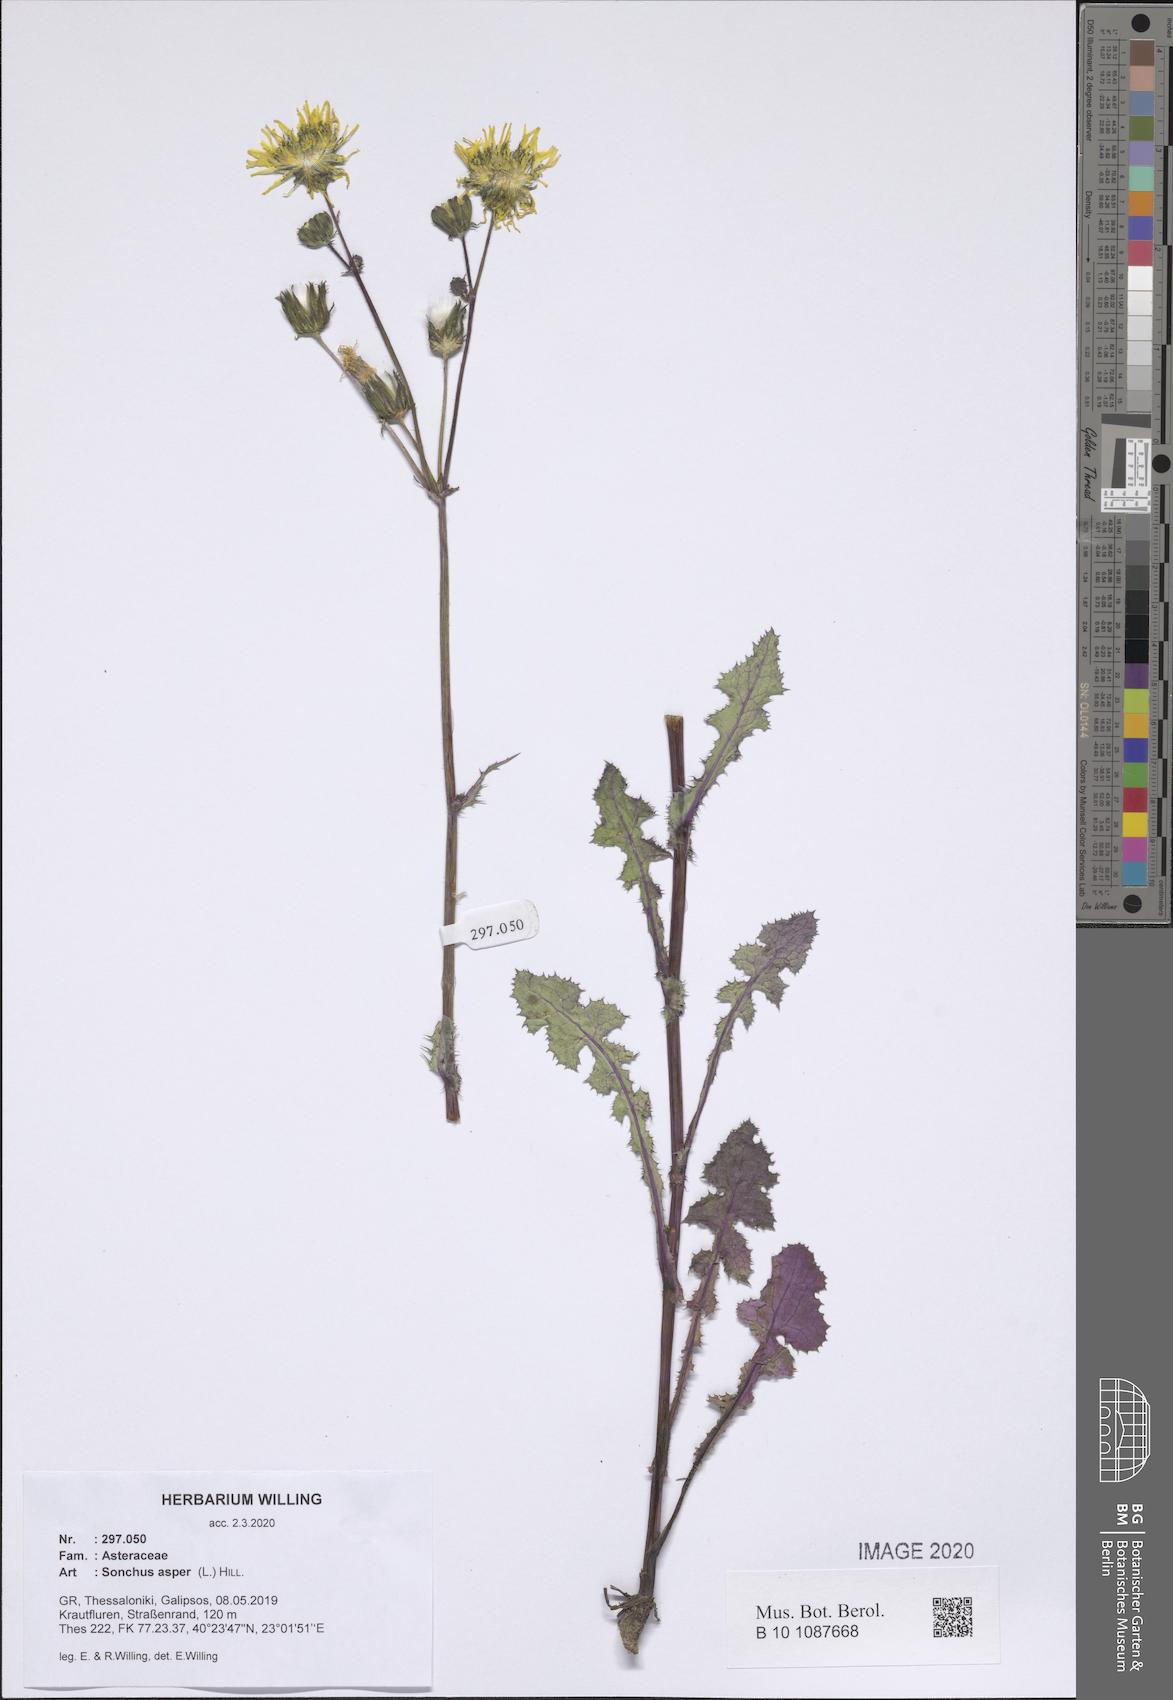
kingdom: Plantae
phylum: Tracheophyta
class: Magnoliopsida
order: Asterales
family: Asteraceae
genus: Sonchus
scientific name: Sonchus asper
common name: Prickly sow-thistle
